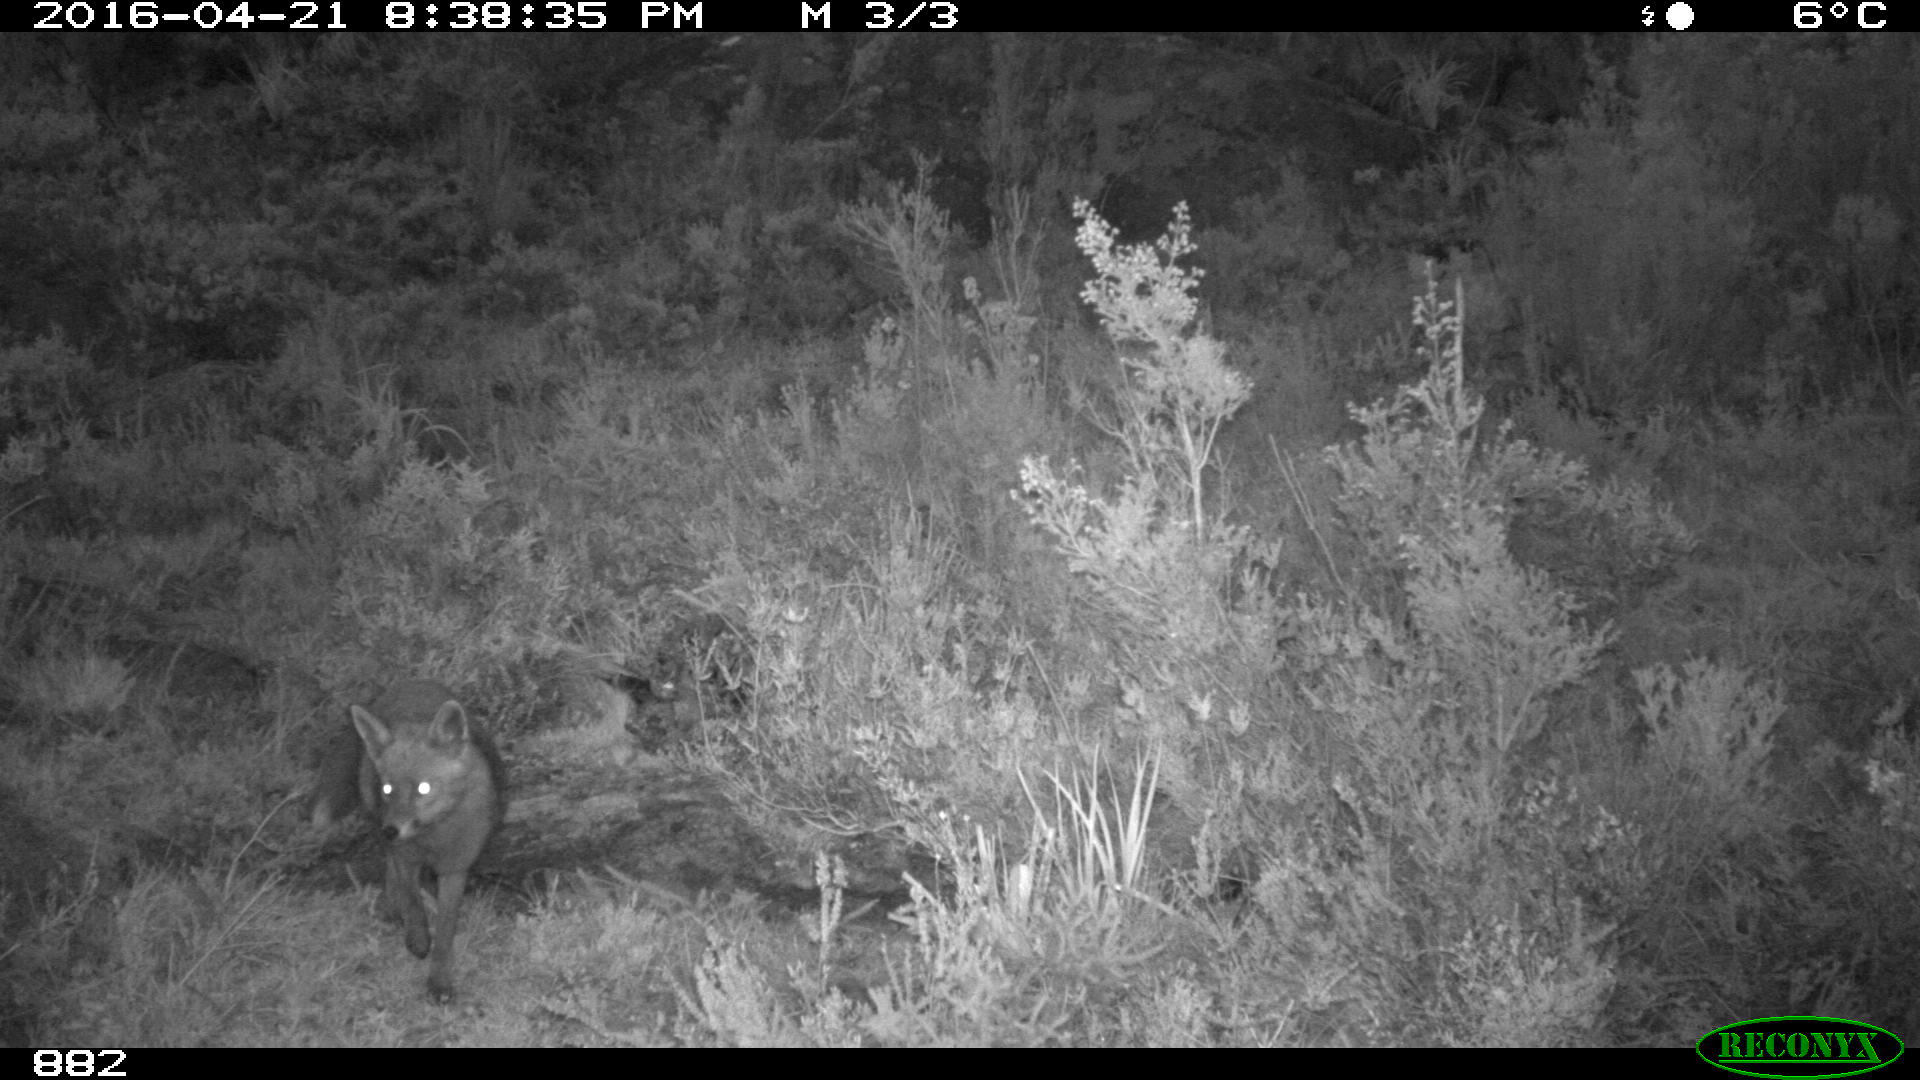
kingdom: Animalia
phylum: Chordata
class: Mammalia
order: Carnivora
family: Canidae
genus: Vulpes
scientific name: Vulpes vulpes
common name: Red fox
